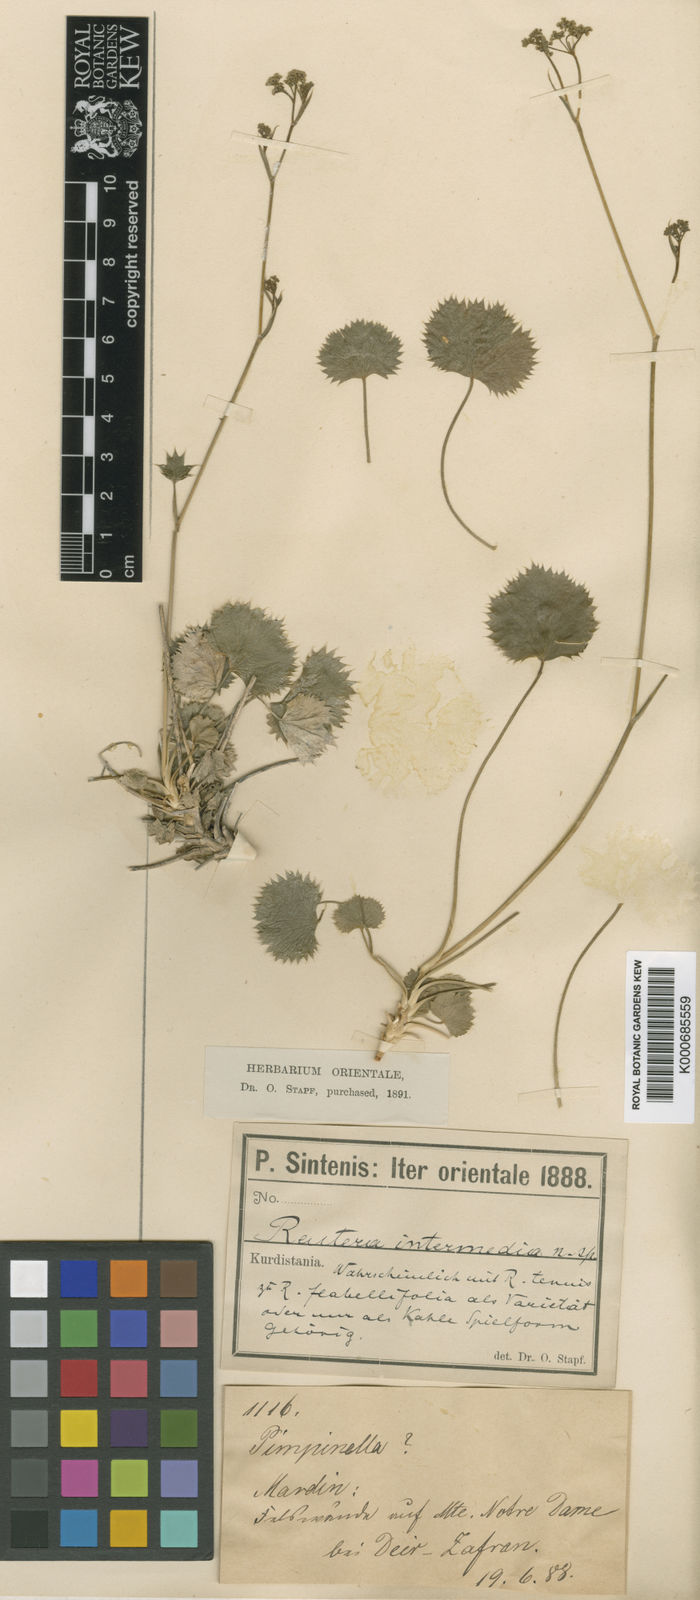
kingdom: Plantae
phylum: Tracheophyta
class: Magnoliopsida
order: Apiales
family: Apiaceae
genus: Pimpinella
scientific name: Pimpinella sintenisii
